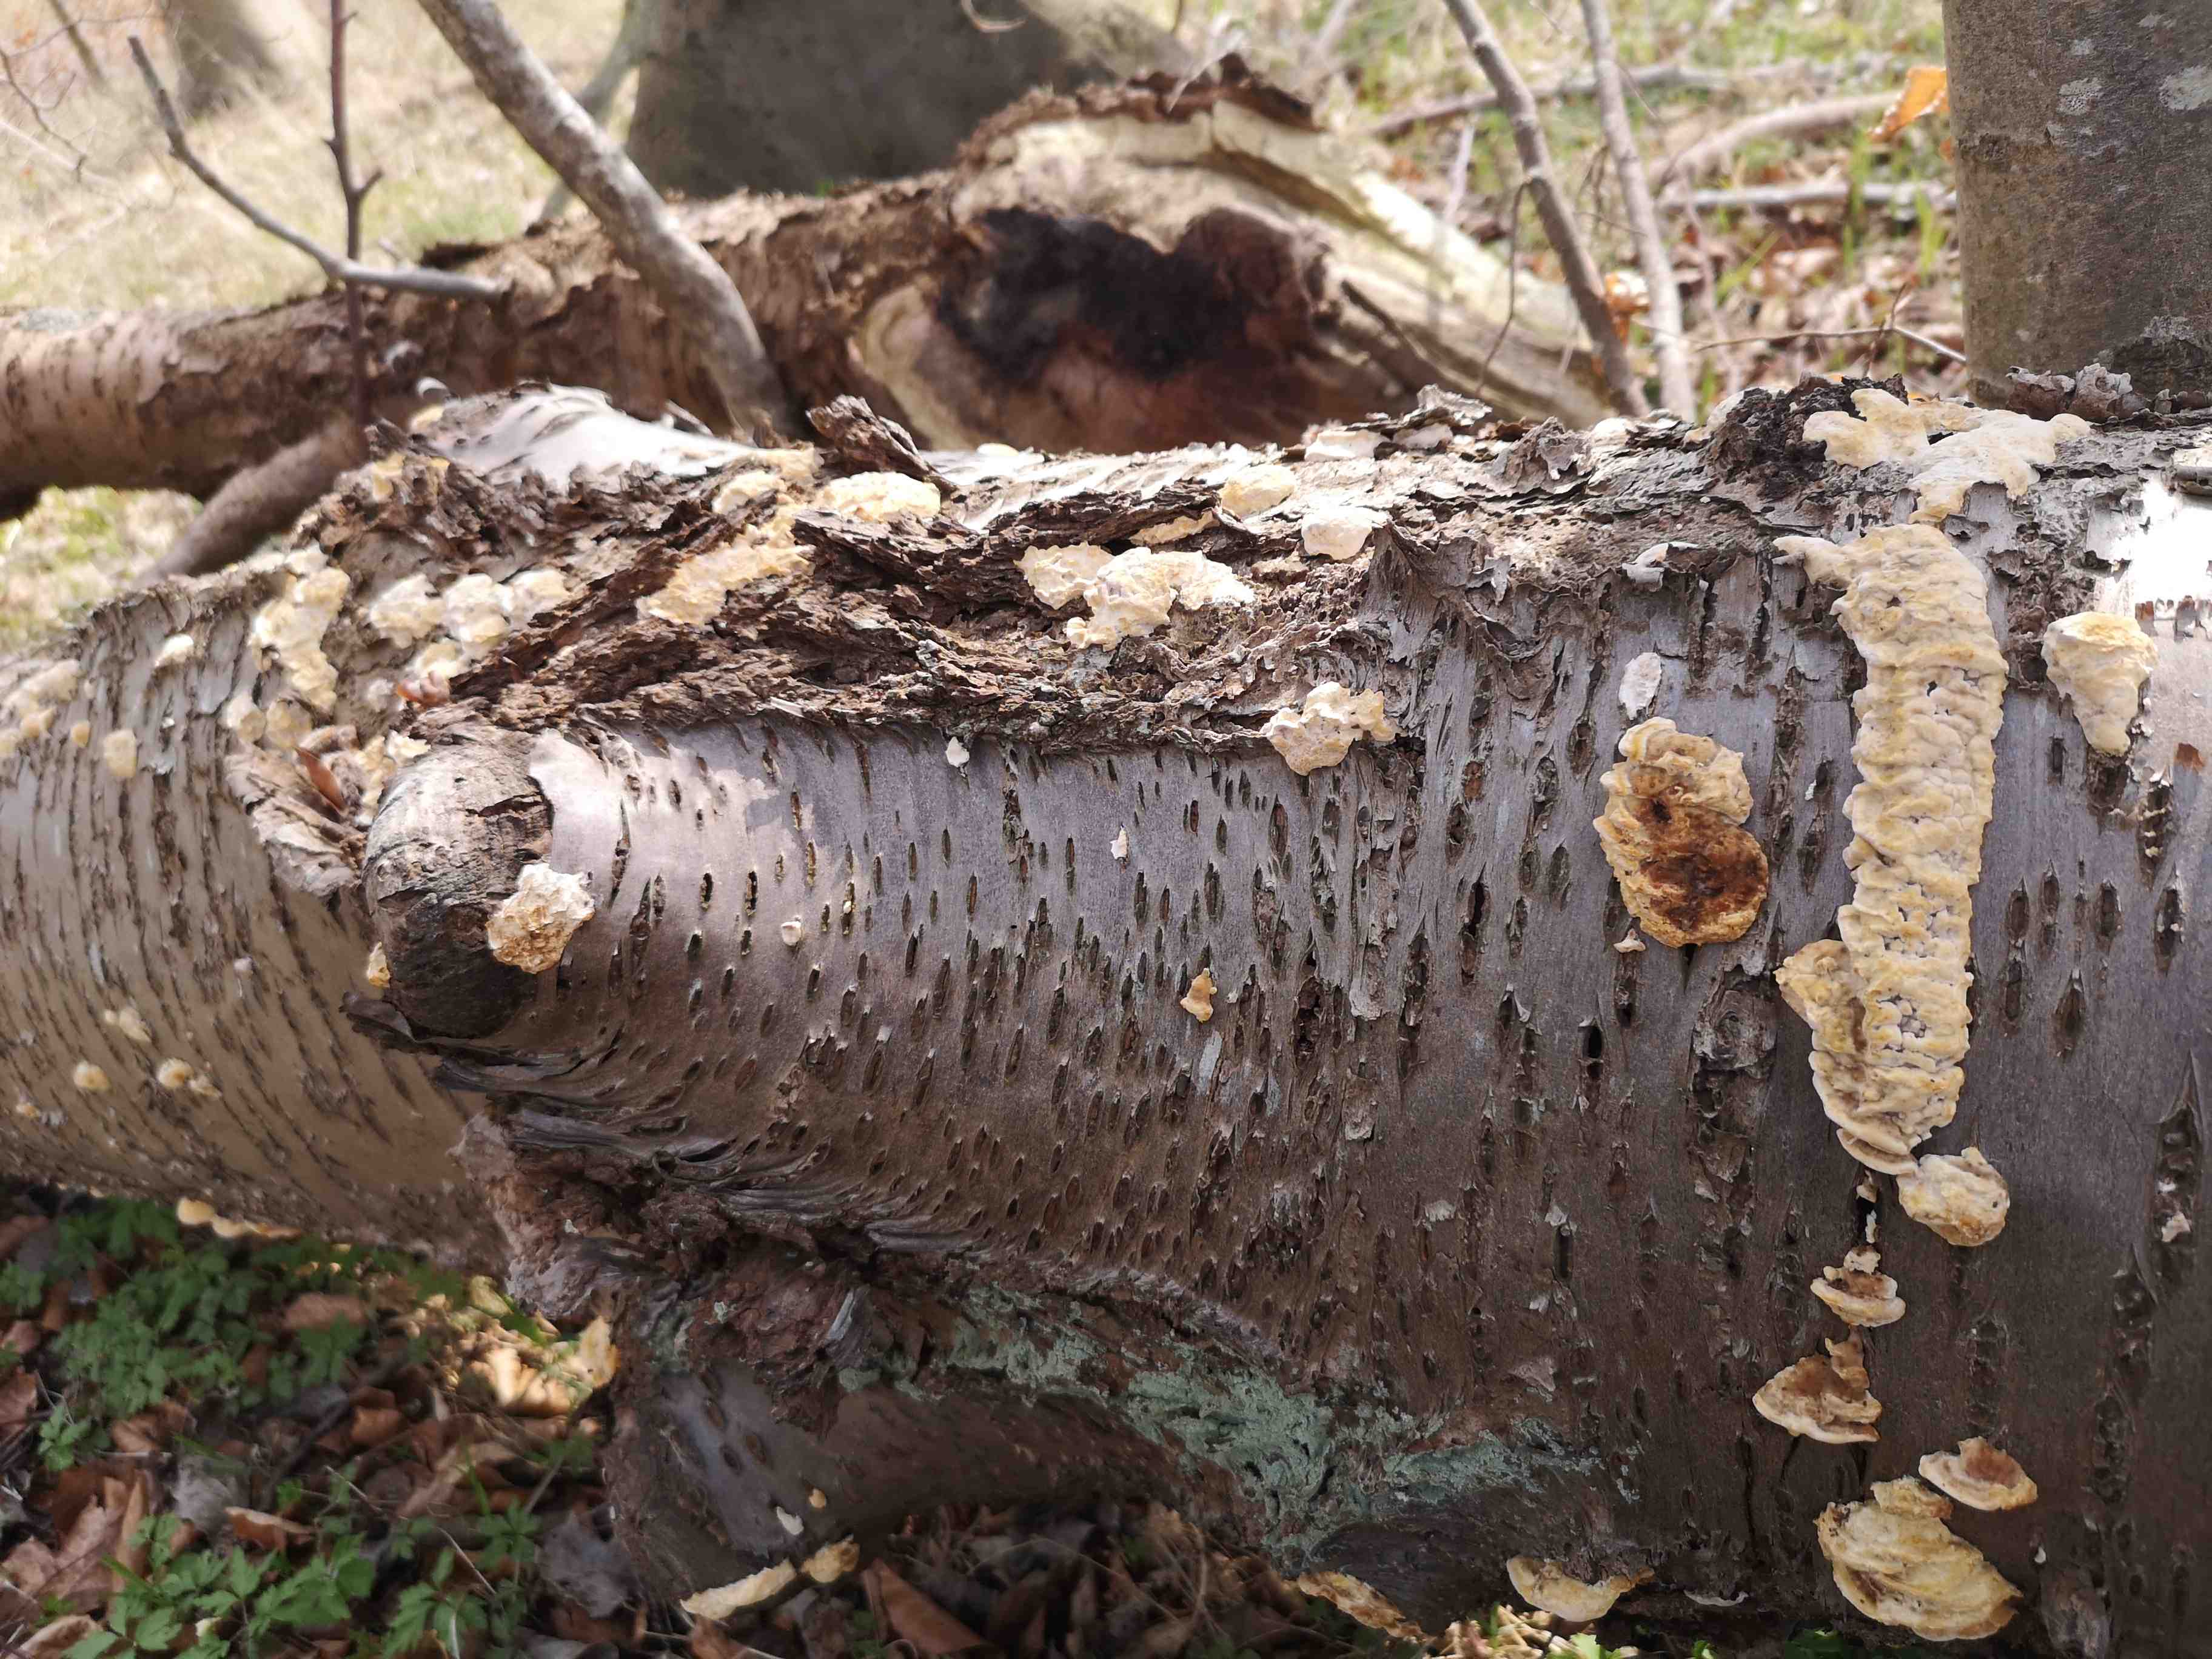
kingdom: Fungi
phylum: Basidiomycota
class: Agaricomycetes
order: Polyporales
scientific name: Polyporales
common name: poresvampordenen
